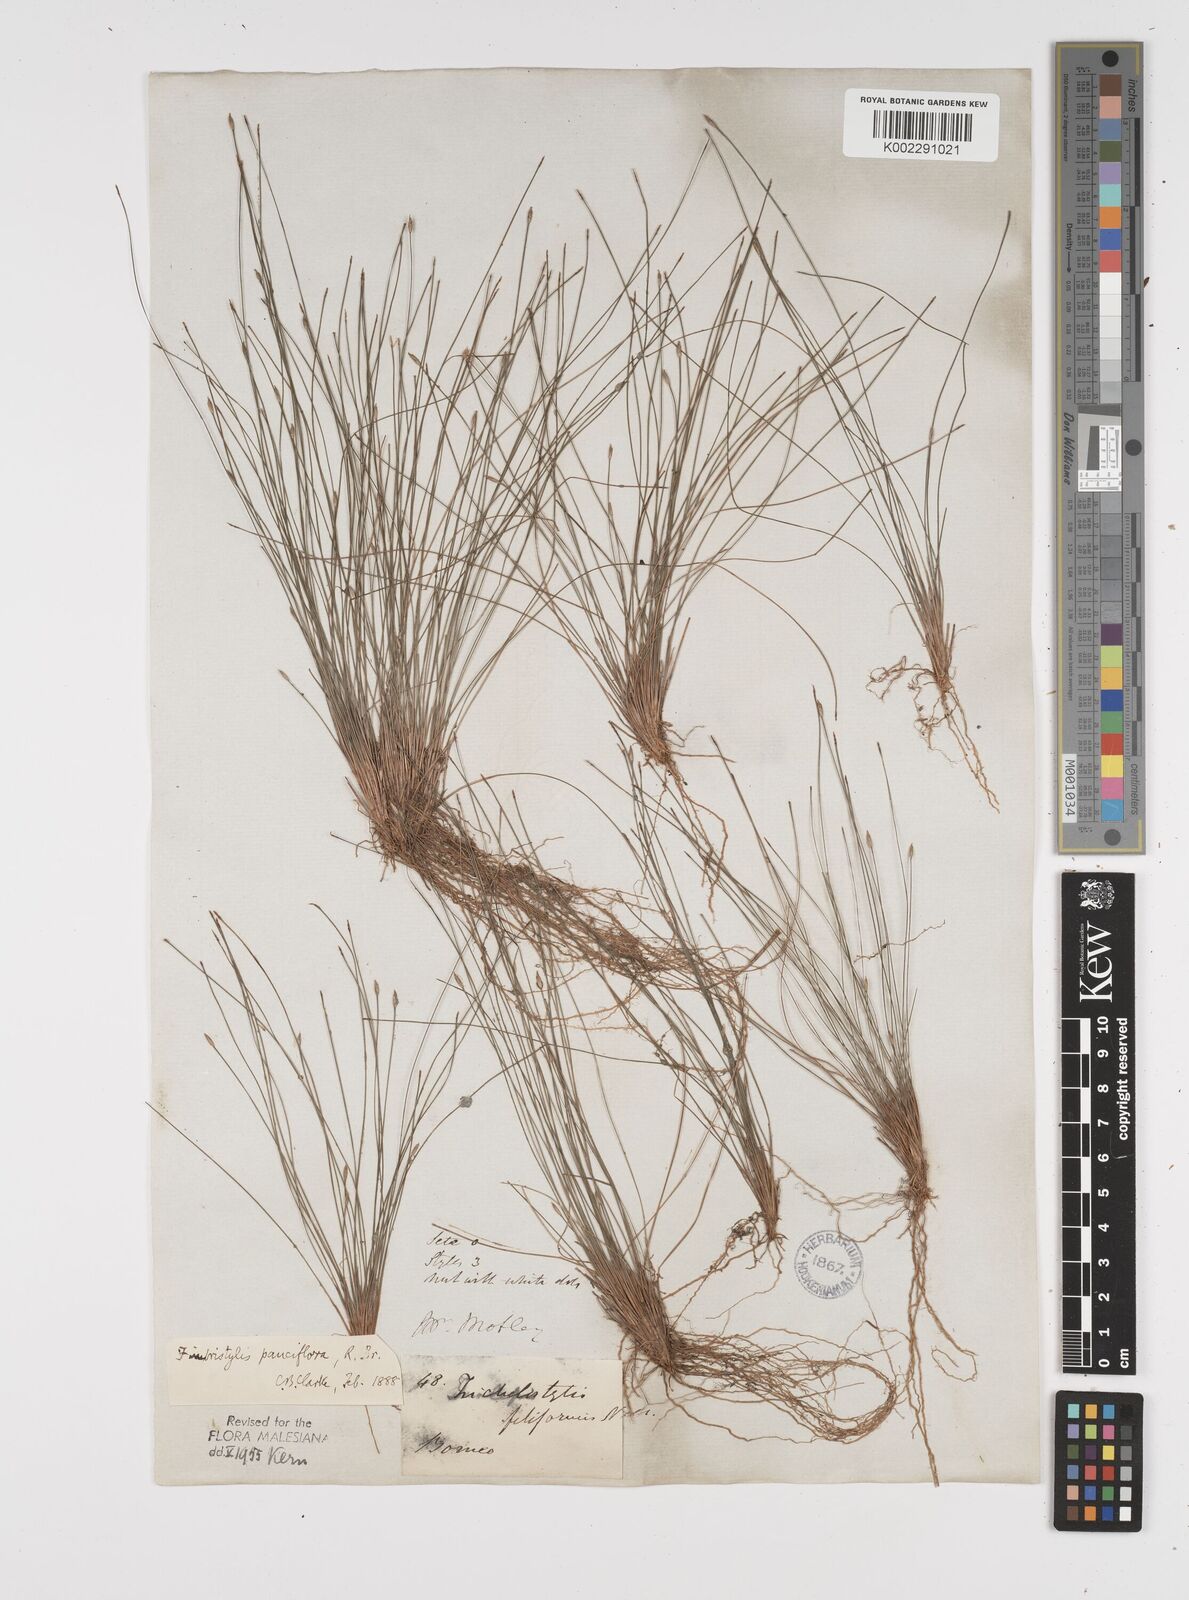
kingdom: Plantae
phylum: Tracheophyta
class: Liliopsida
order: Poales
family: Cyperaceae
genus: Fimbristylis
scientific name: Fimbristylis pauciflora
